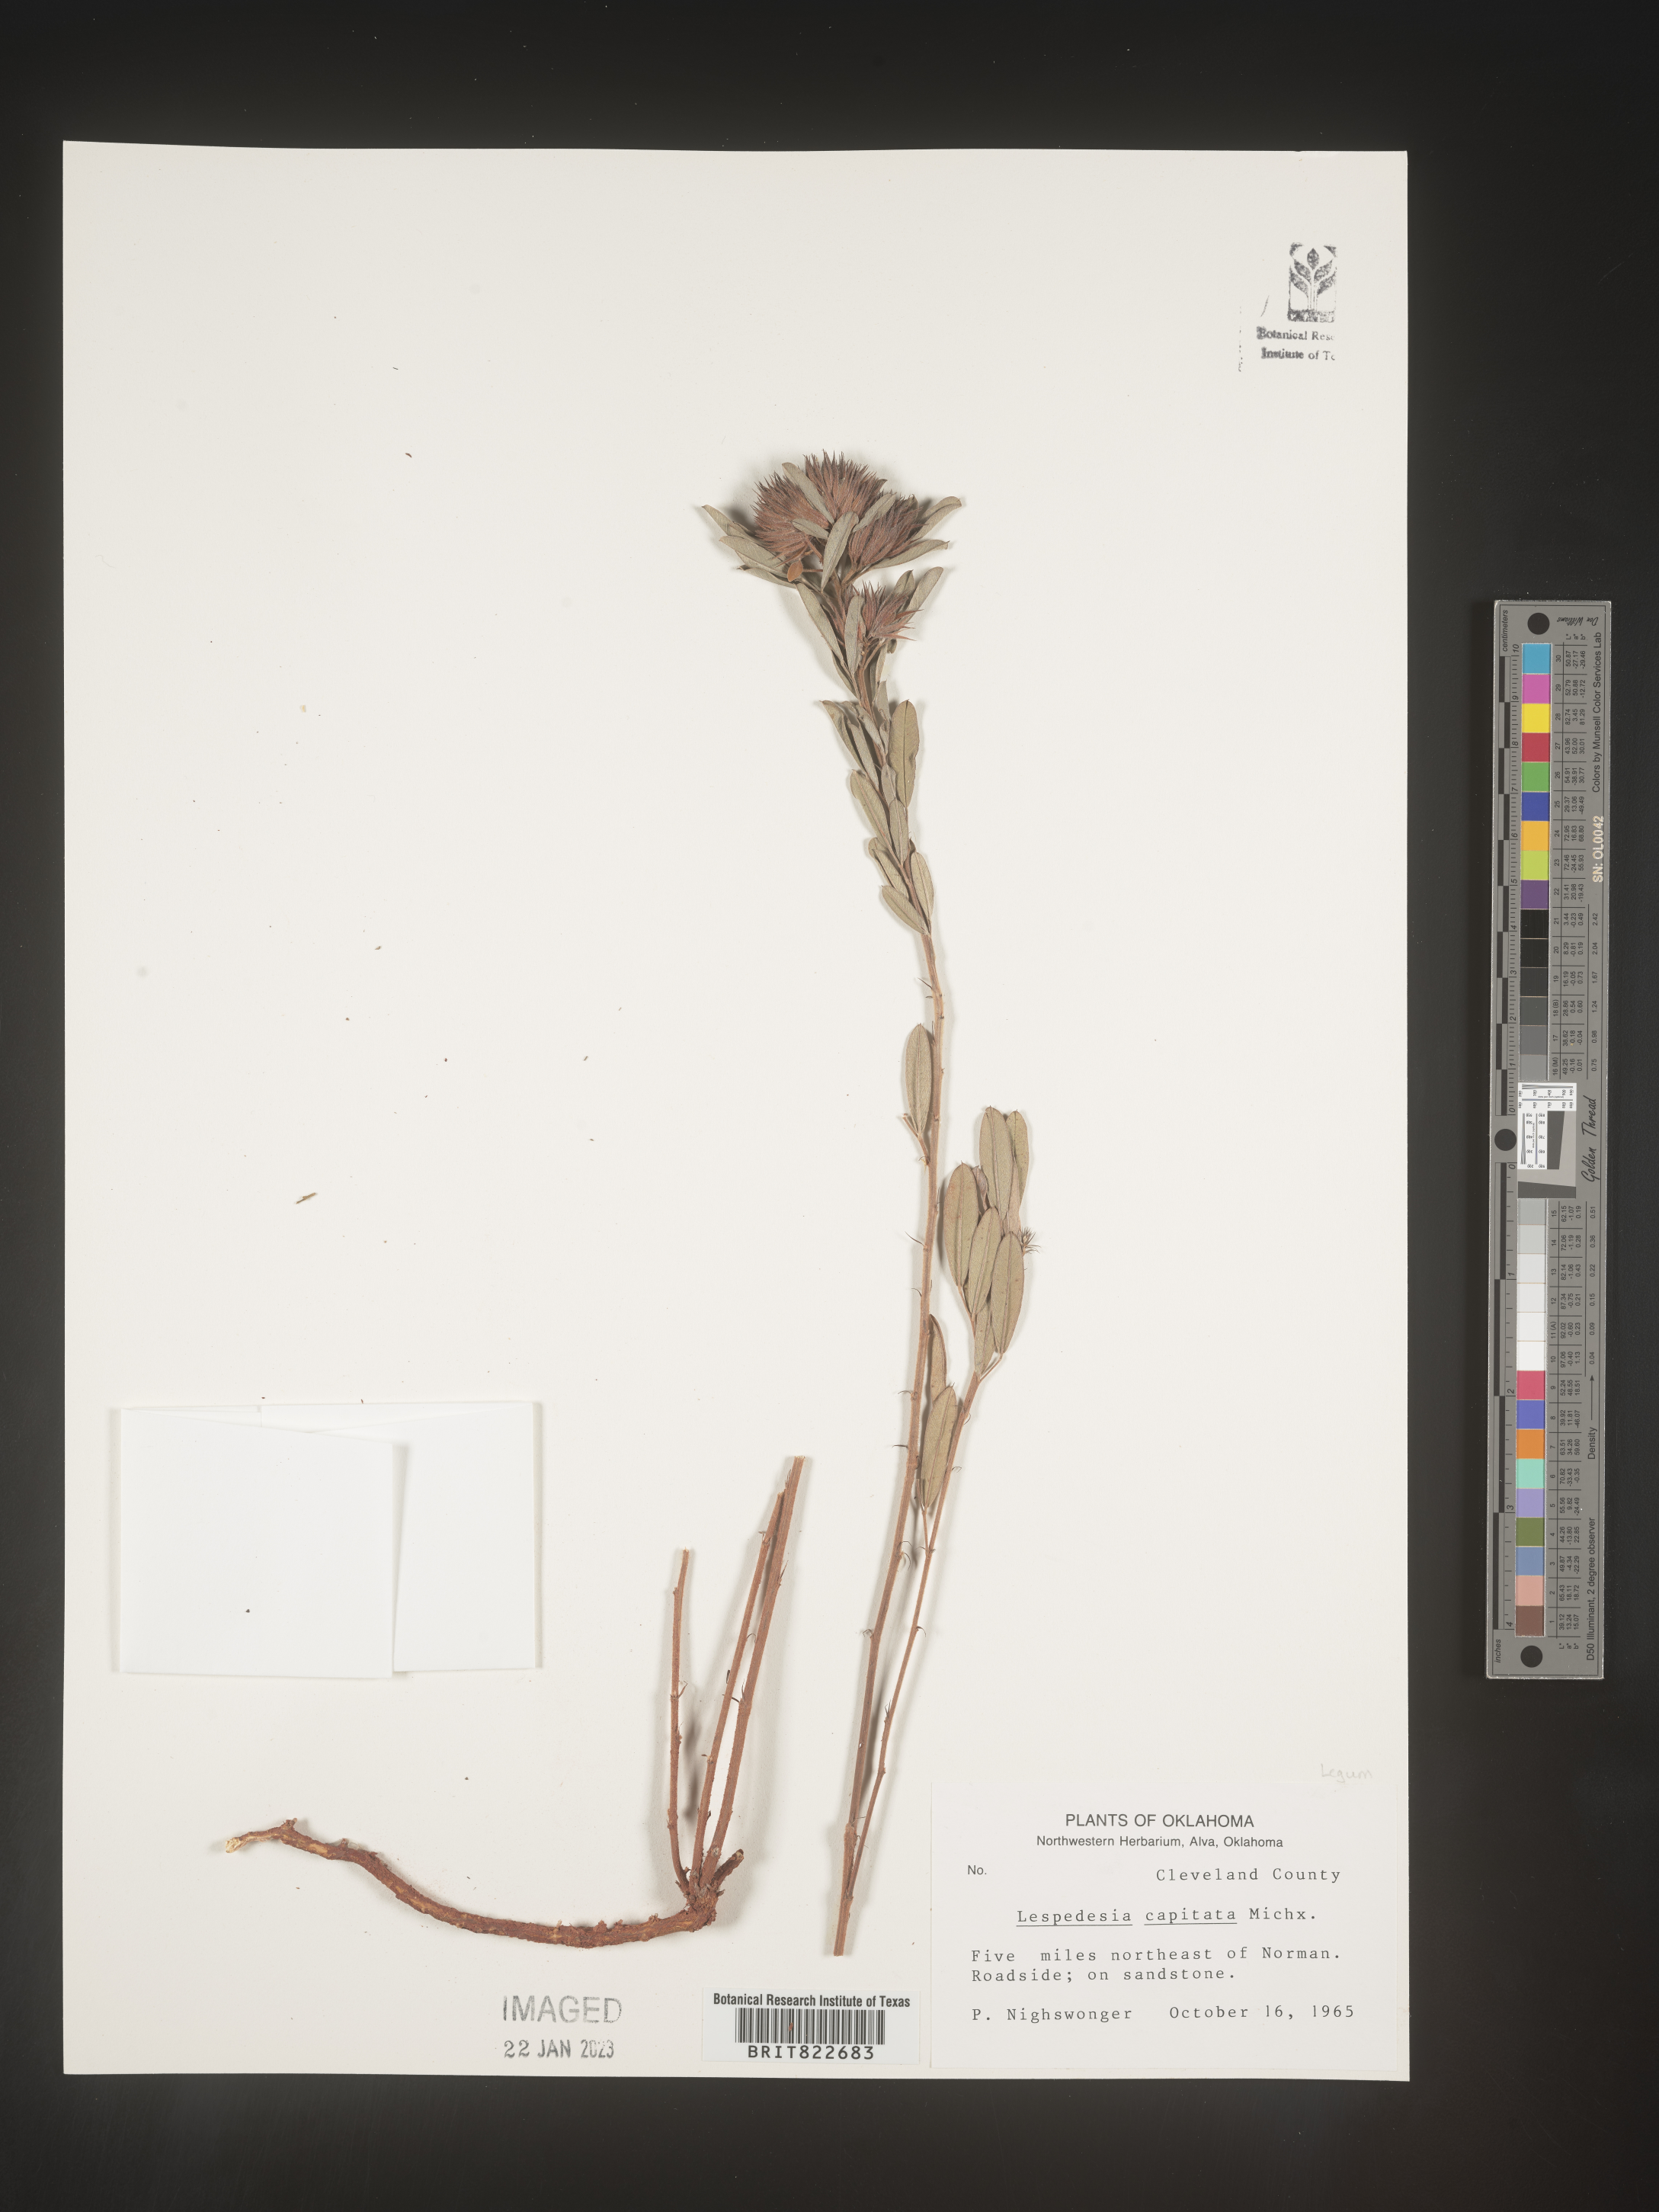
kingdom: Plantae
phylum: Tracheophyta
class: Magnoliopsida
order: Fabales
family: Fabaceae
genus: Lespedeza
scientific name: Lespedeza capitata
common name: Dusty clover
